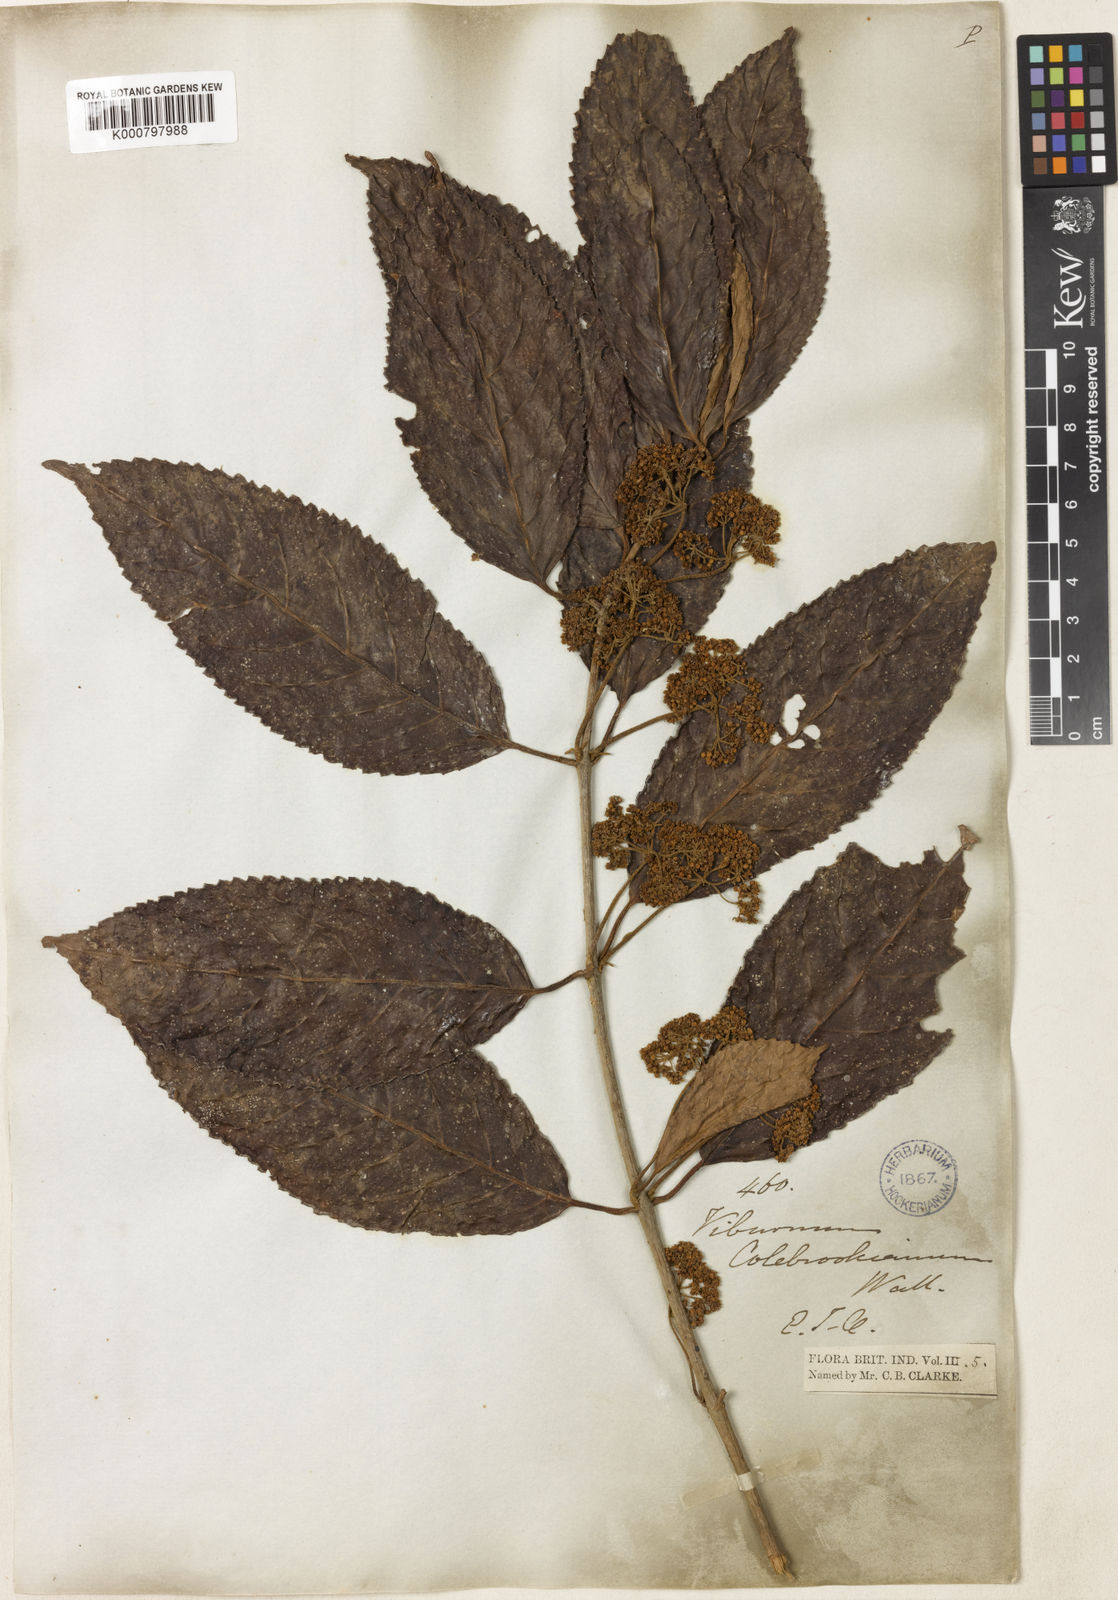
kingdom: Plantae
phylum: Tracheophyta
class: Magnoliopsida
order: Dipsacales
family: Viburnaceae
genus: Viburnum
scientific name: Viburnum
